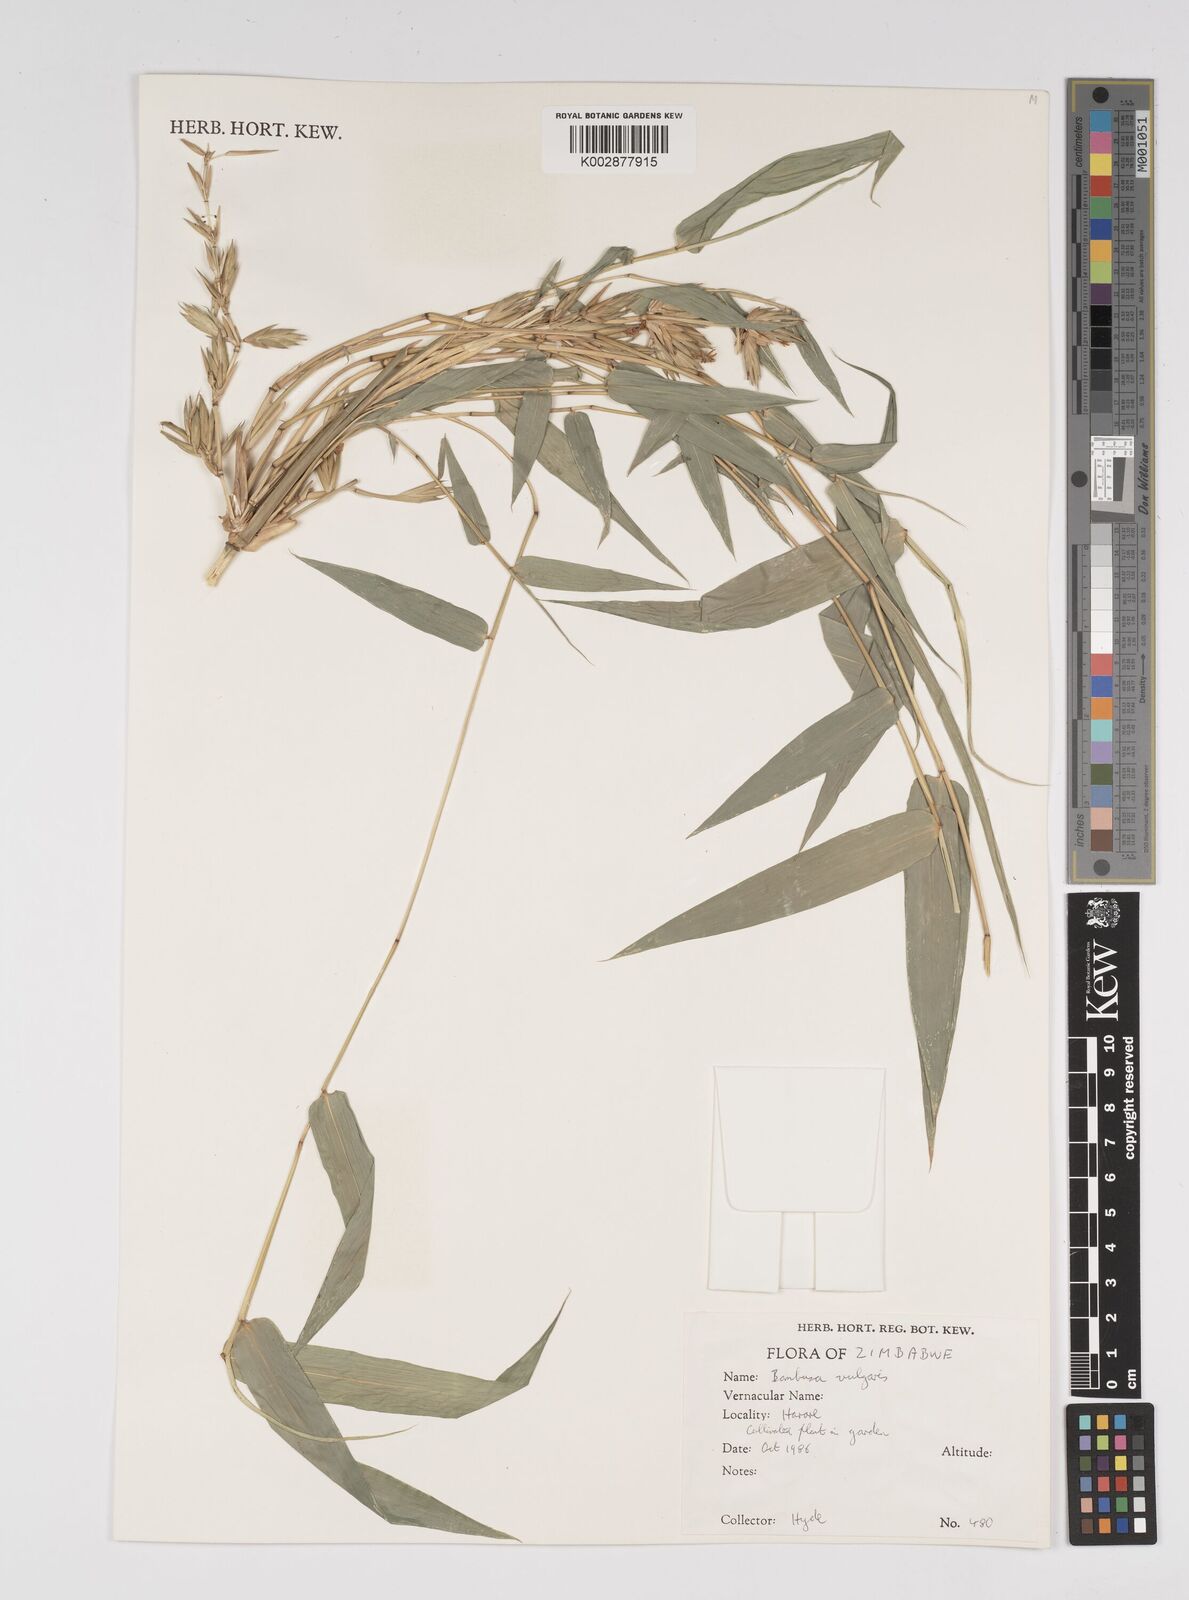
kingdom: Plantae
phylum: Tracheophyta
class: Liliopsida
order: Poales
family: Poaceae
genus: Bambusa
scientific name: Bambusa vulgaris
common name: Common bamboo
